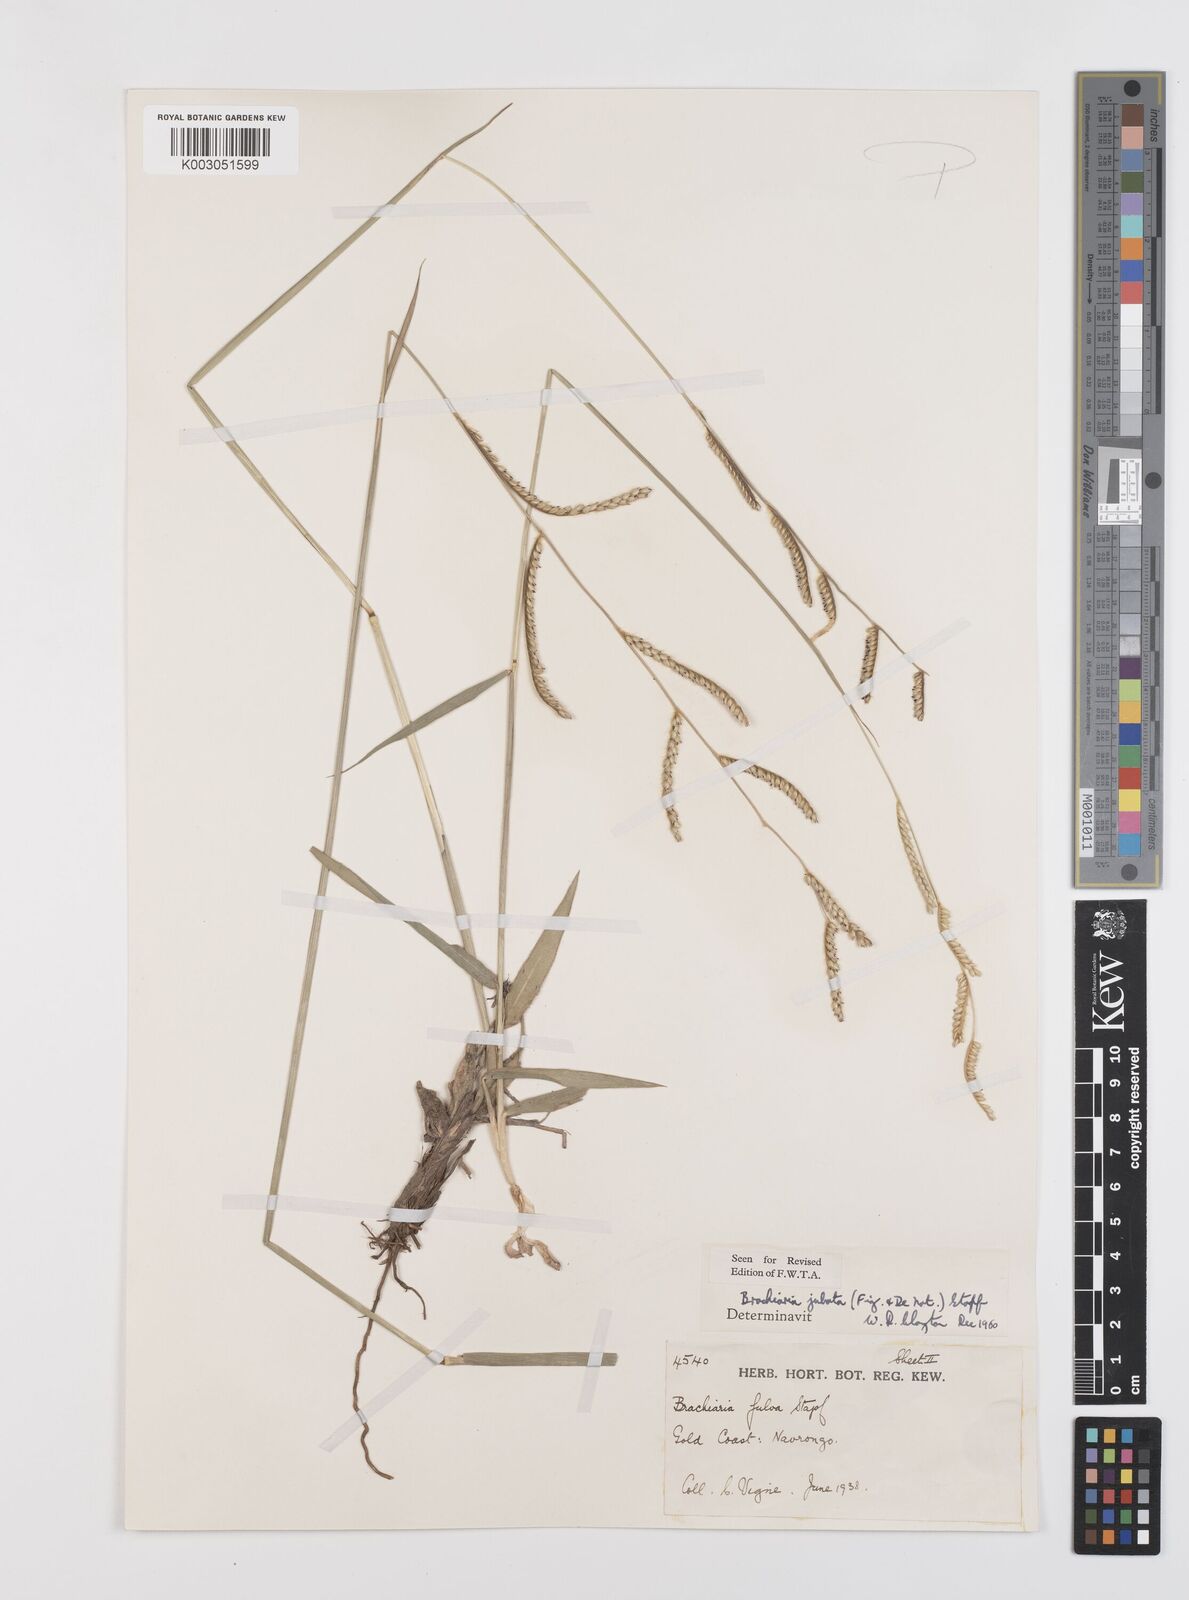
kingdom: Plantae
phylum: Tracheophyta
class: Liliopsida
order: Poales
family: Poaceae
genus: Urochloa
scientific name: Urochloa jubata
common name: Buffalograss
